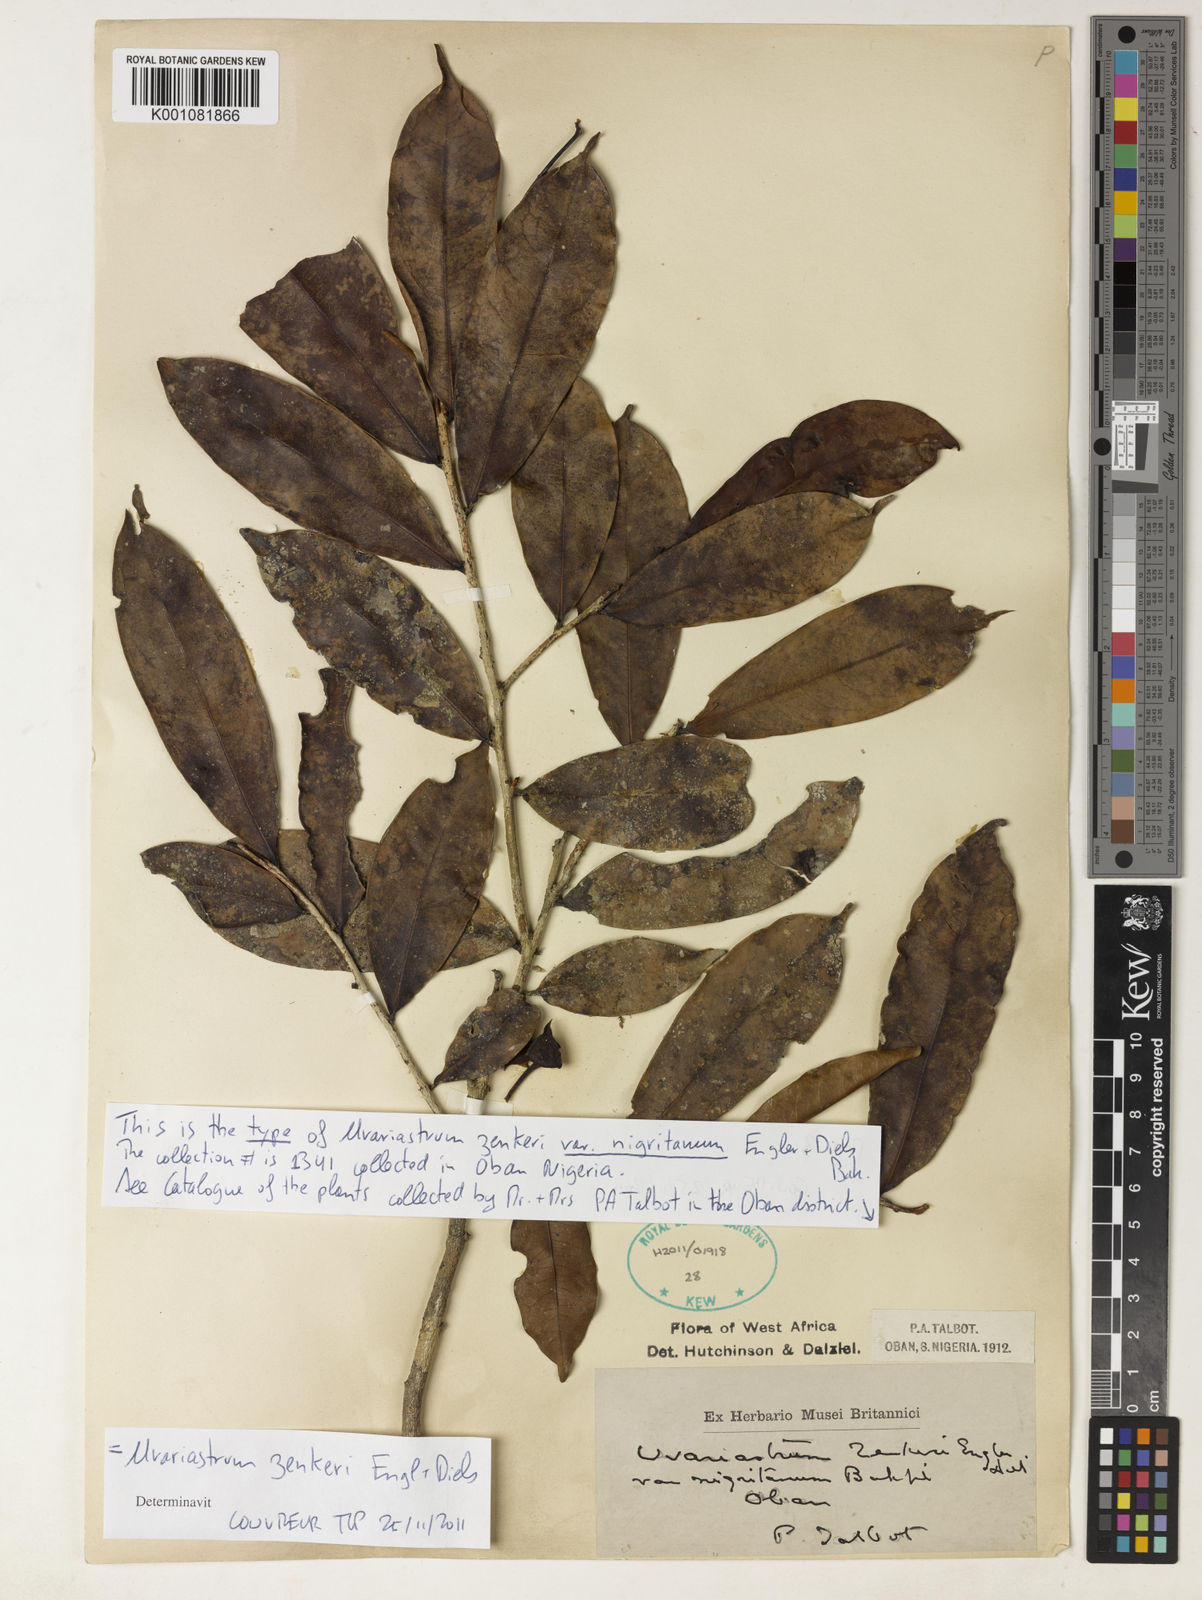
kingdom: Plantae
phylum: Tracheophyta
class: Magnoliopsida
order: Magnoliales
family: Annonaceae
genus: Uvariastrum
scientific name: Uvariastrum zenkeri
